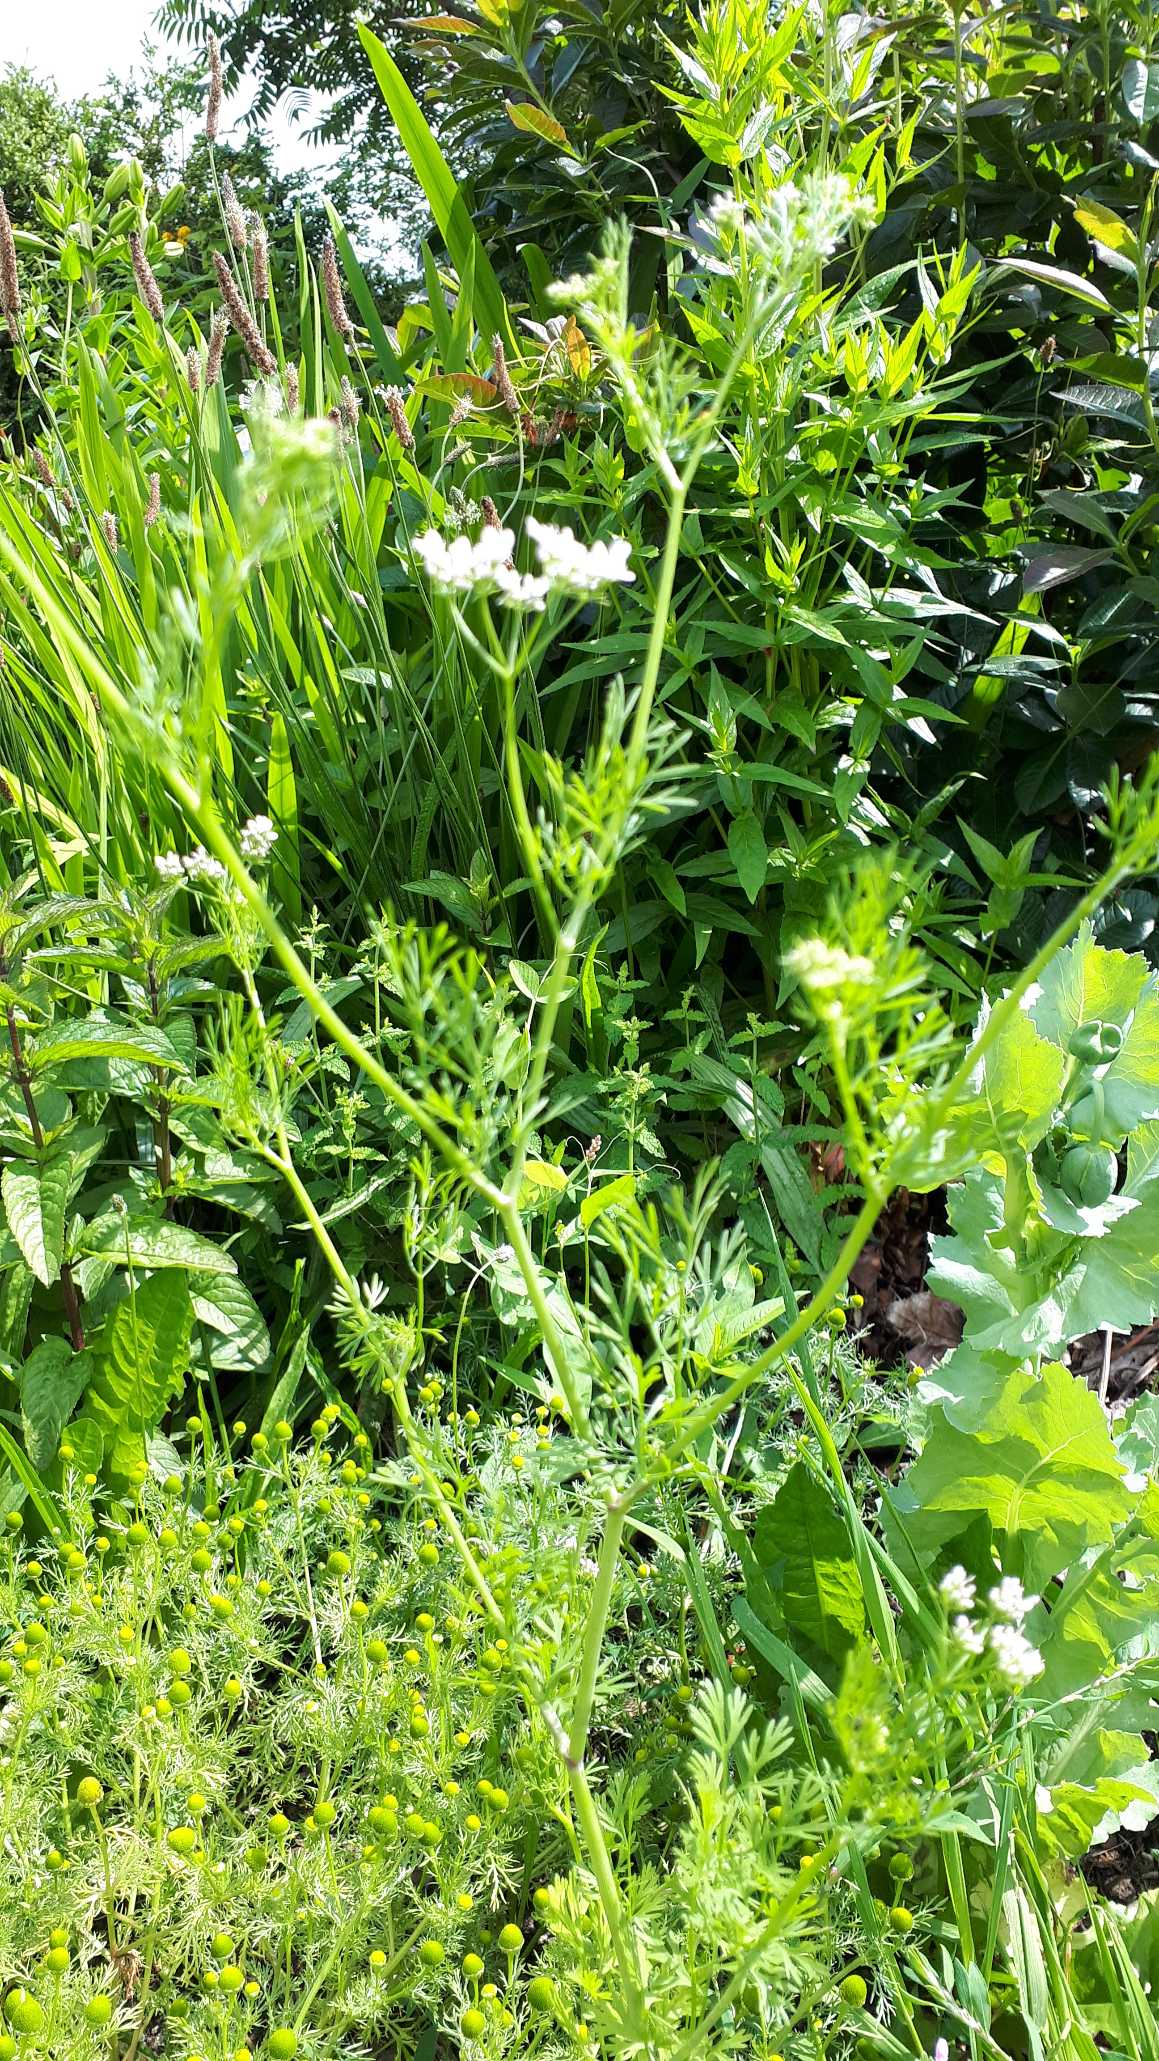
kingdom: Plantae
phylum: Tracheophyta
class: Magnoliopsida
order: Apiales
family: Apiaceae
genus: Coriandrum
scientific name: Coriandrum sativum
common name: Koriander
